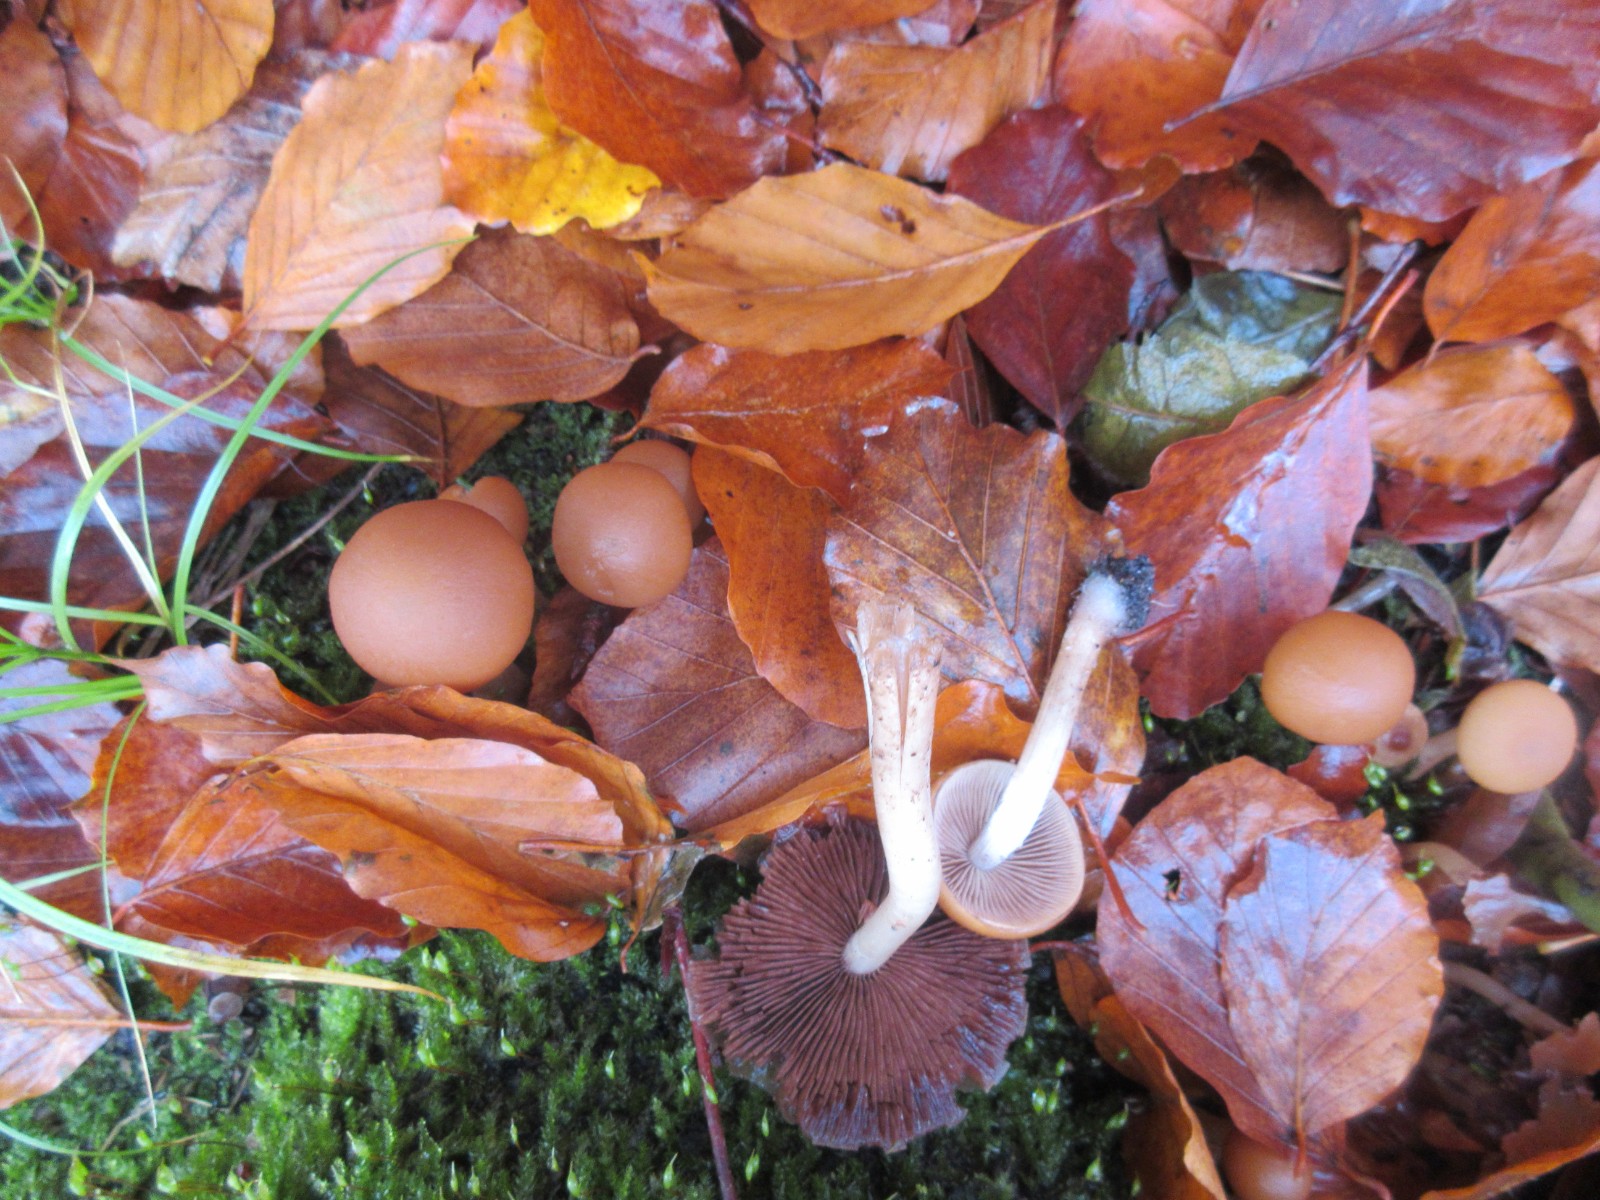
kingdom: Fungi
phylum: Basidiomycota
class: Agaricomycetes
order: Agaricales
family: Psathyrellaceae
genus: Psathyrella
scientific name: Psathyrella piluliformis
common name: lysstokket mørkhat
